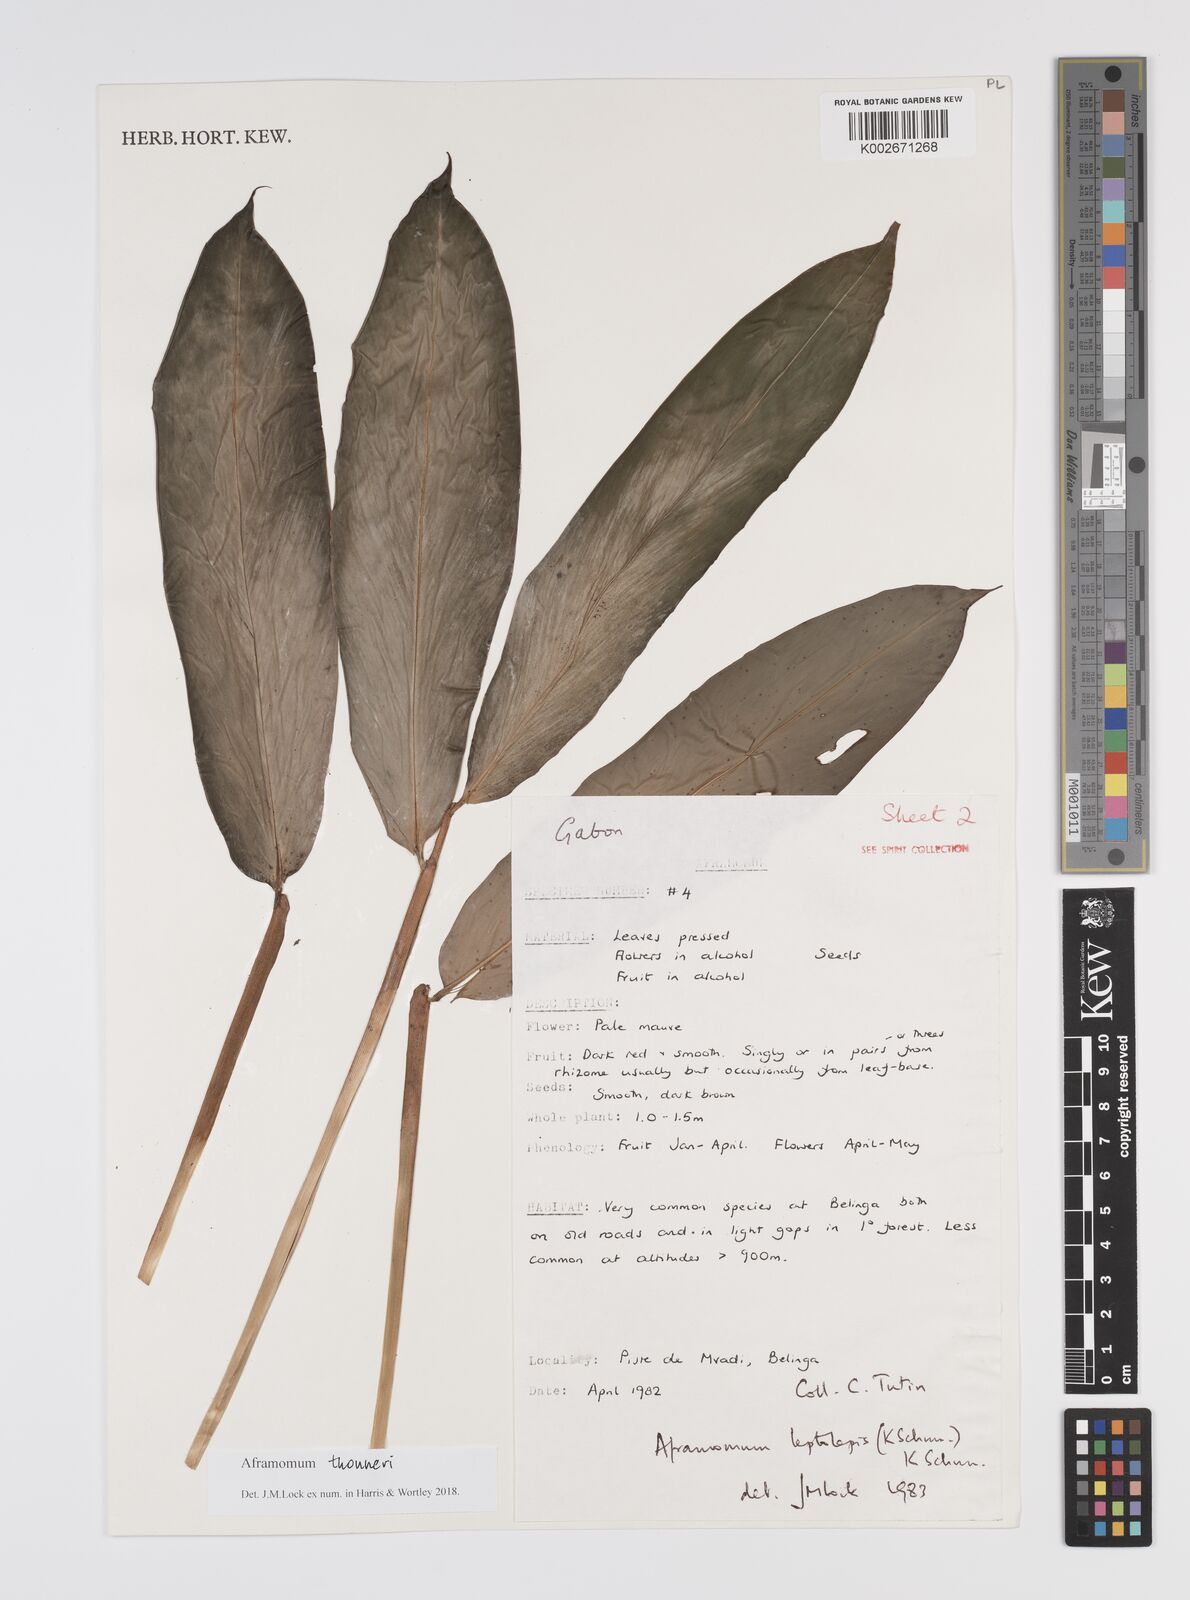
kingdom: Plantae
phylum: Tracheophyta
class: Liliopsida
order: Zingiberales
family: Zingiberaceae
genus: Aframomum
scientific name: Aframomum thonneri
